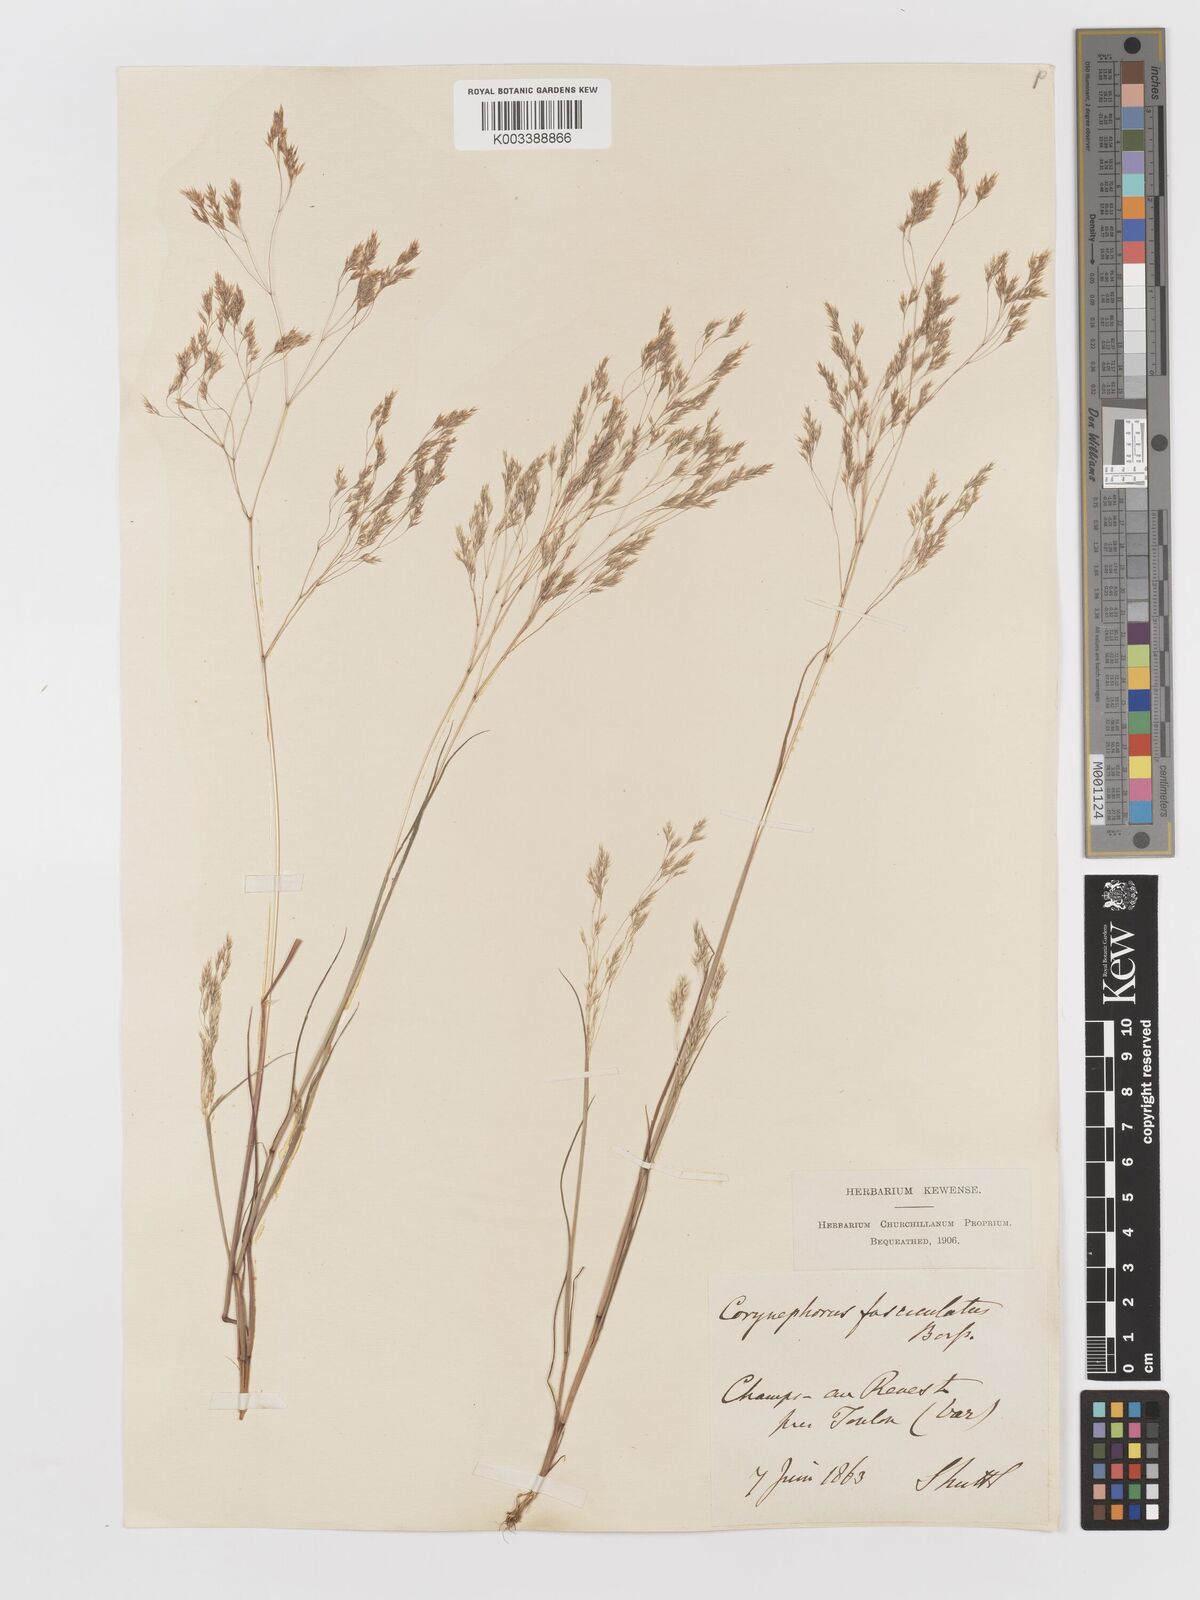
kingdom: Plantae
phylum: Tracheophyta
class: Liliopsida
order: Poales
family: Poaceae
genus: Corynephorus
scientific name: Corynephorus fasciculatus
